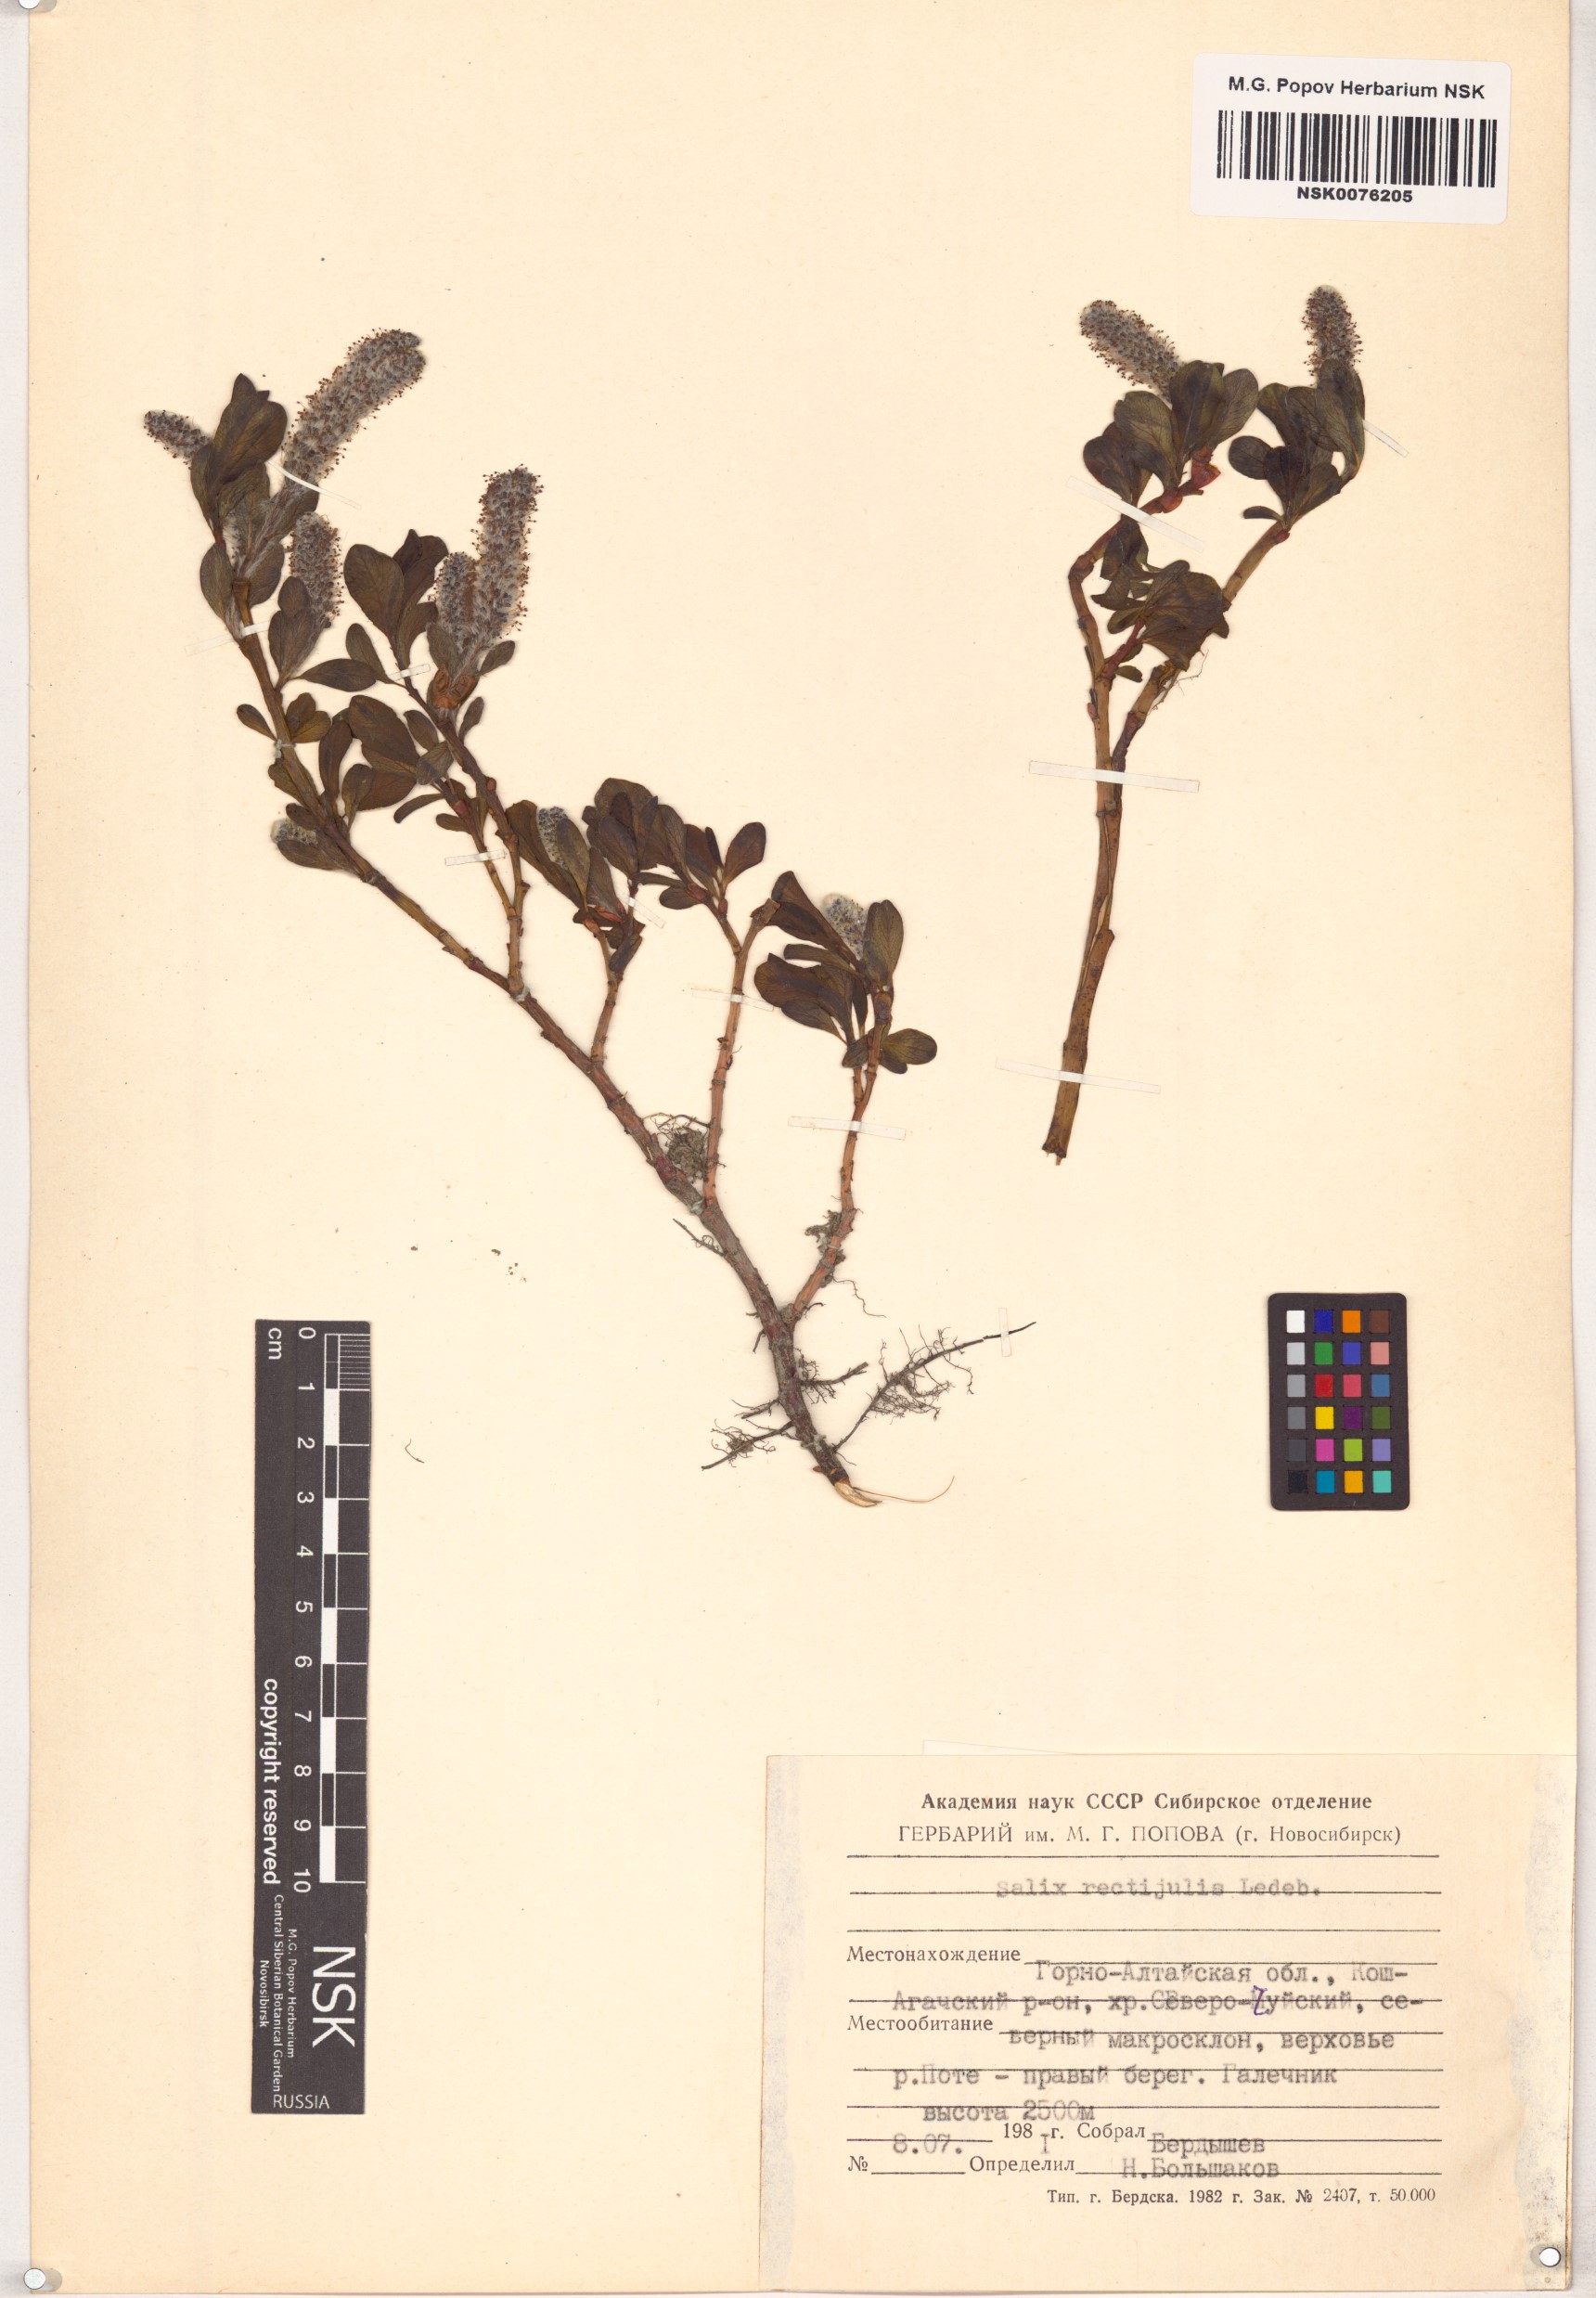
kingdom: Plantae
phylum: Tracheophyta
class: Magnoliopsida
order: Malpighiales
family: Salicaceae
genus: Salix
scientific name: Salix rectijulis
